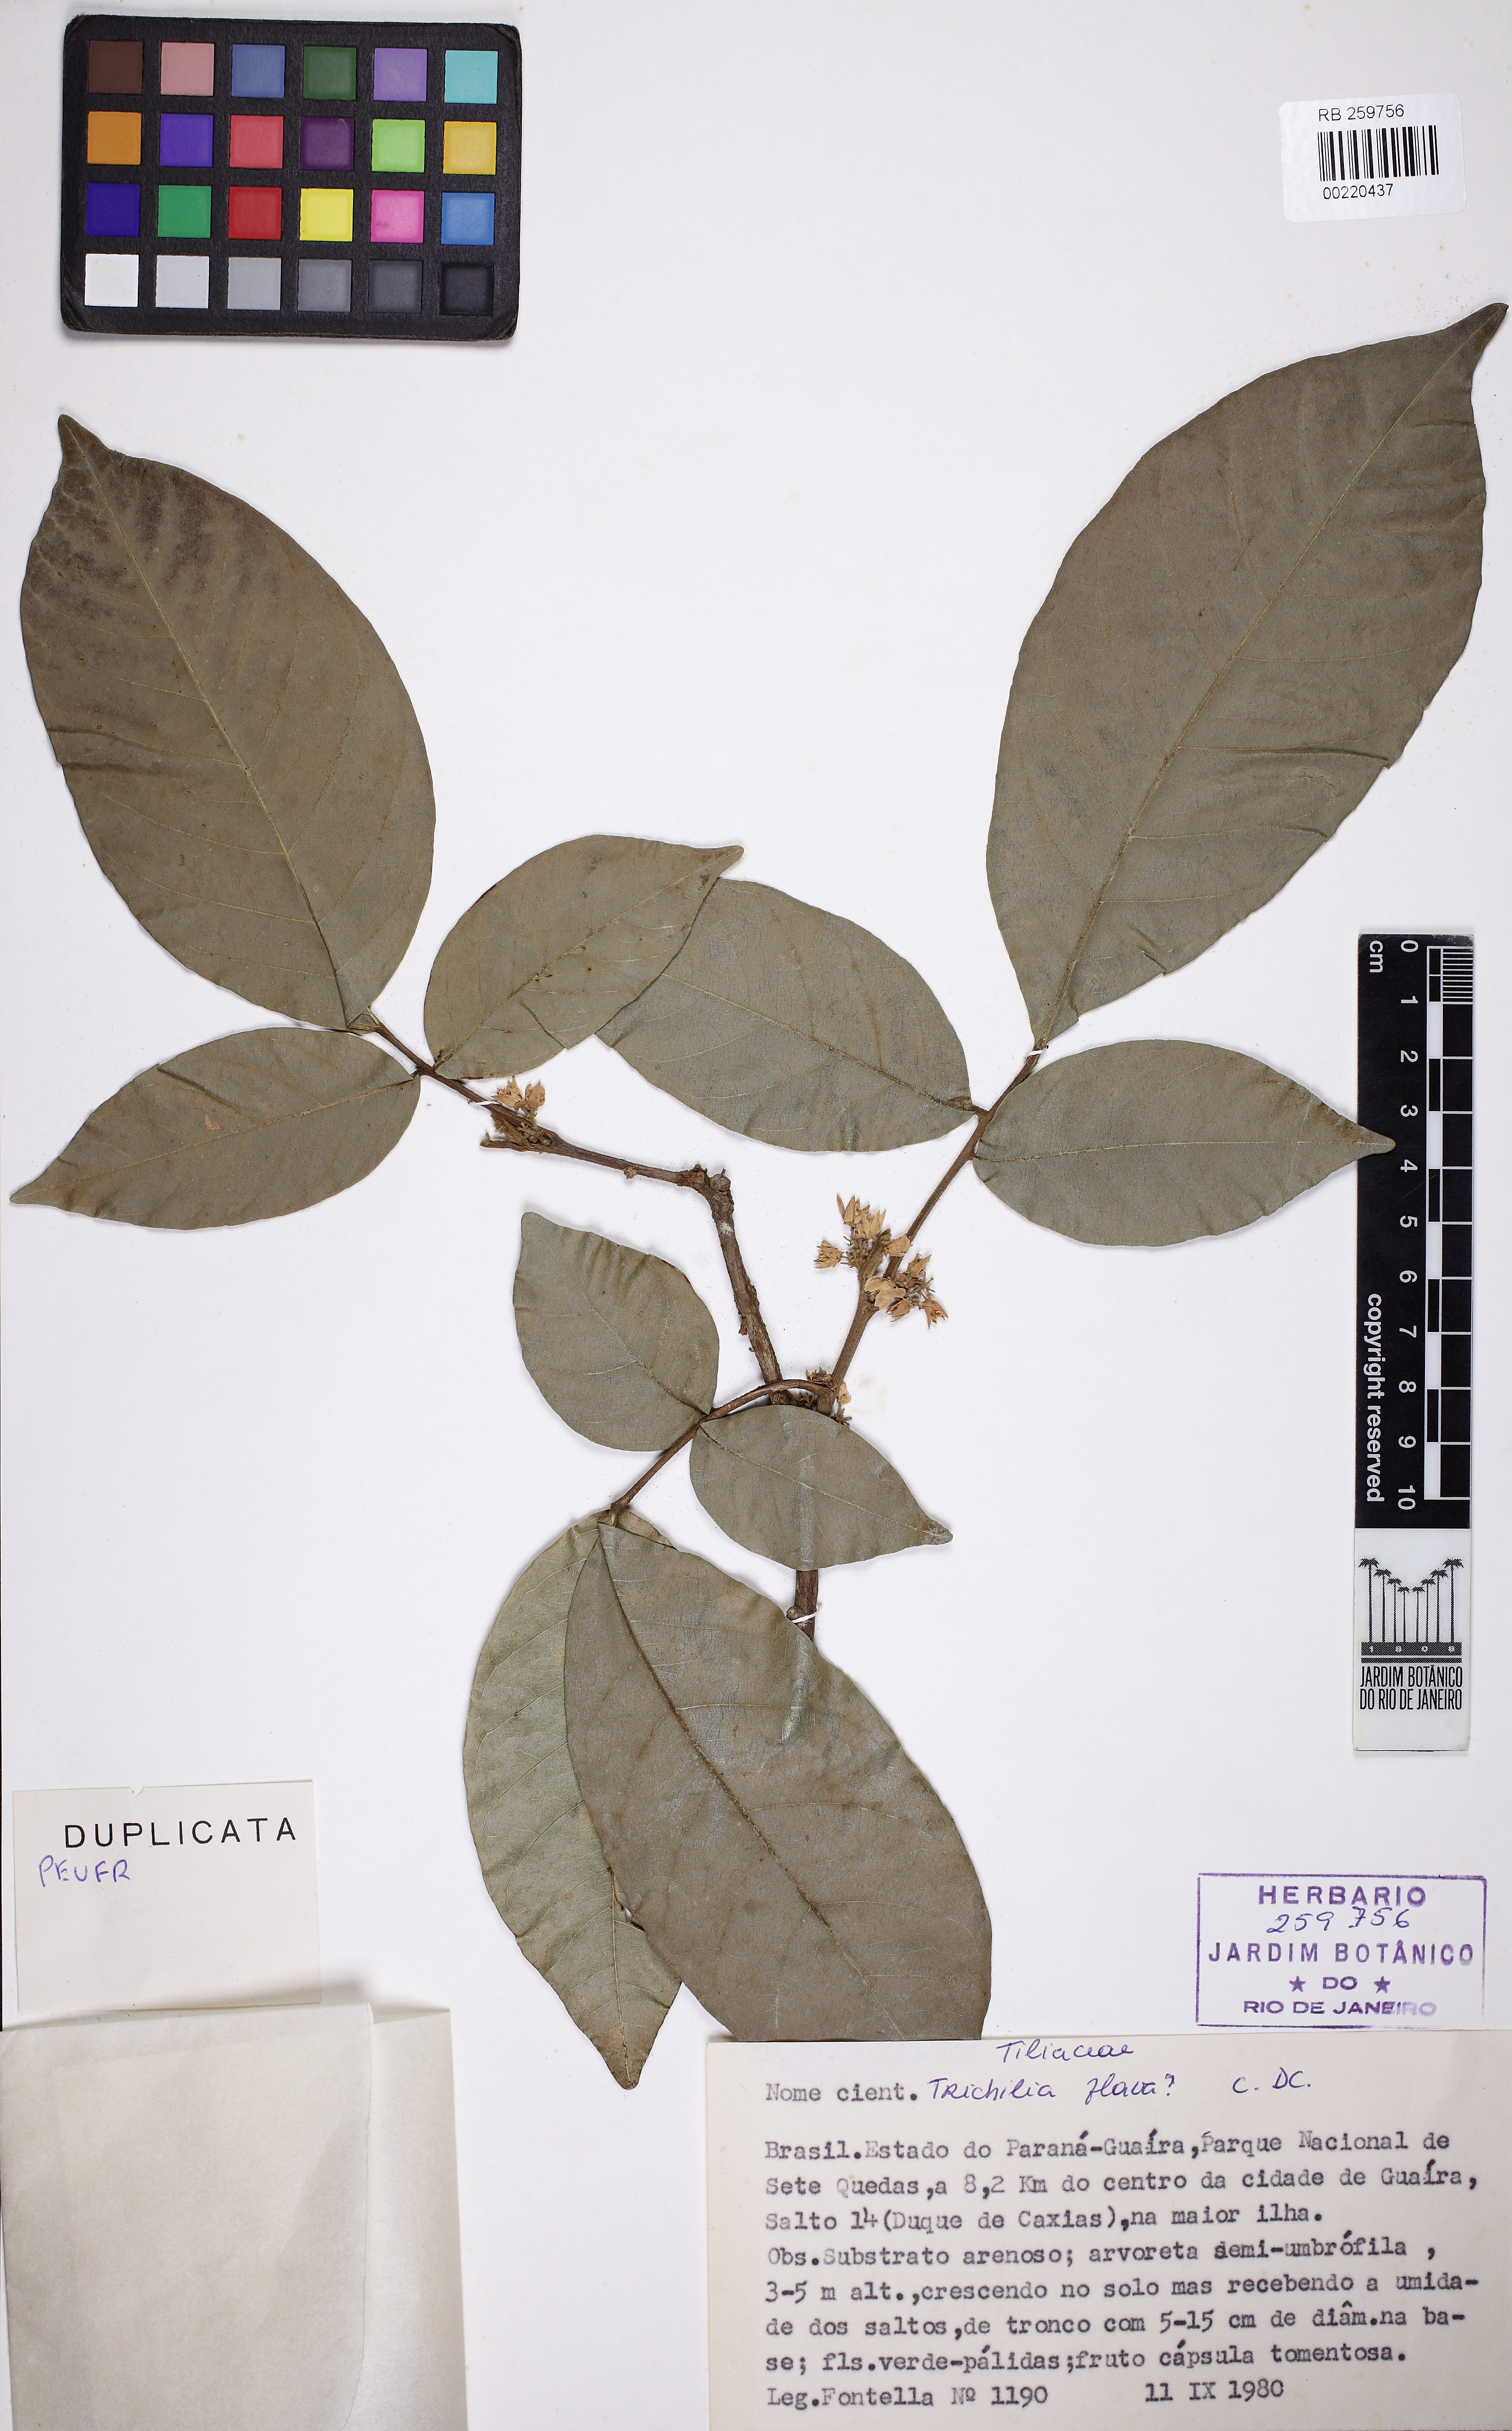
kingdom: Plantae
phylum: Tracheophyta
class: Magnoliopsida
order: Sapindales
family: Meliaceae
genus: Trichilia
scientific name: Trichilia pallida
